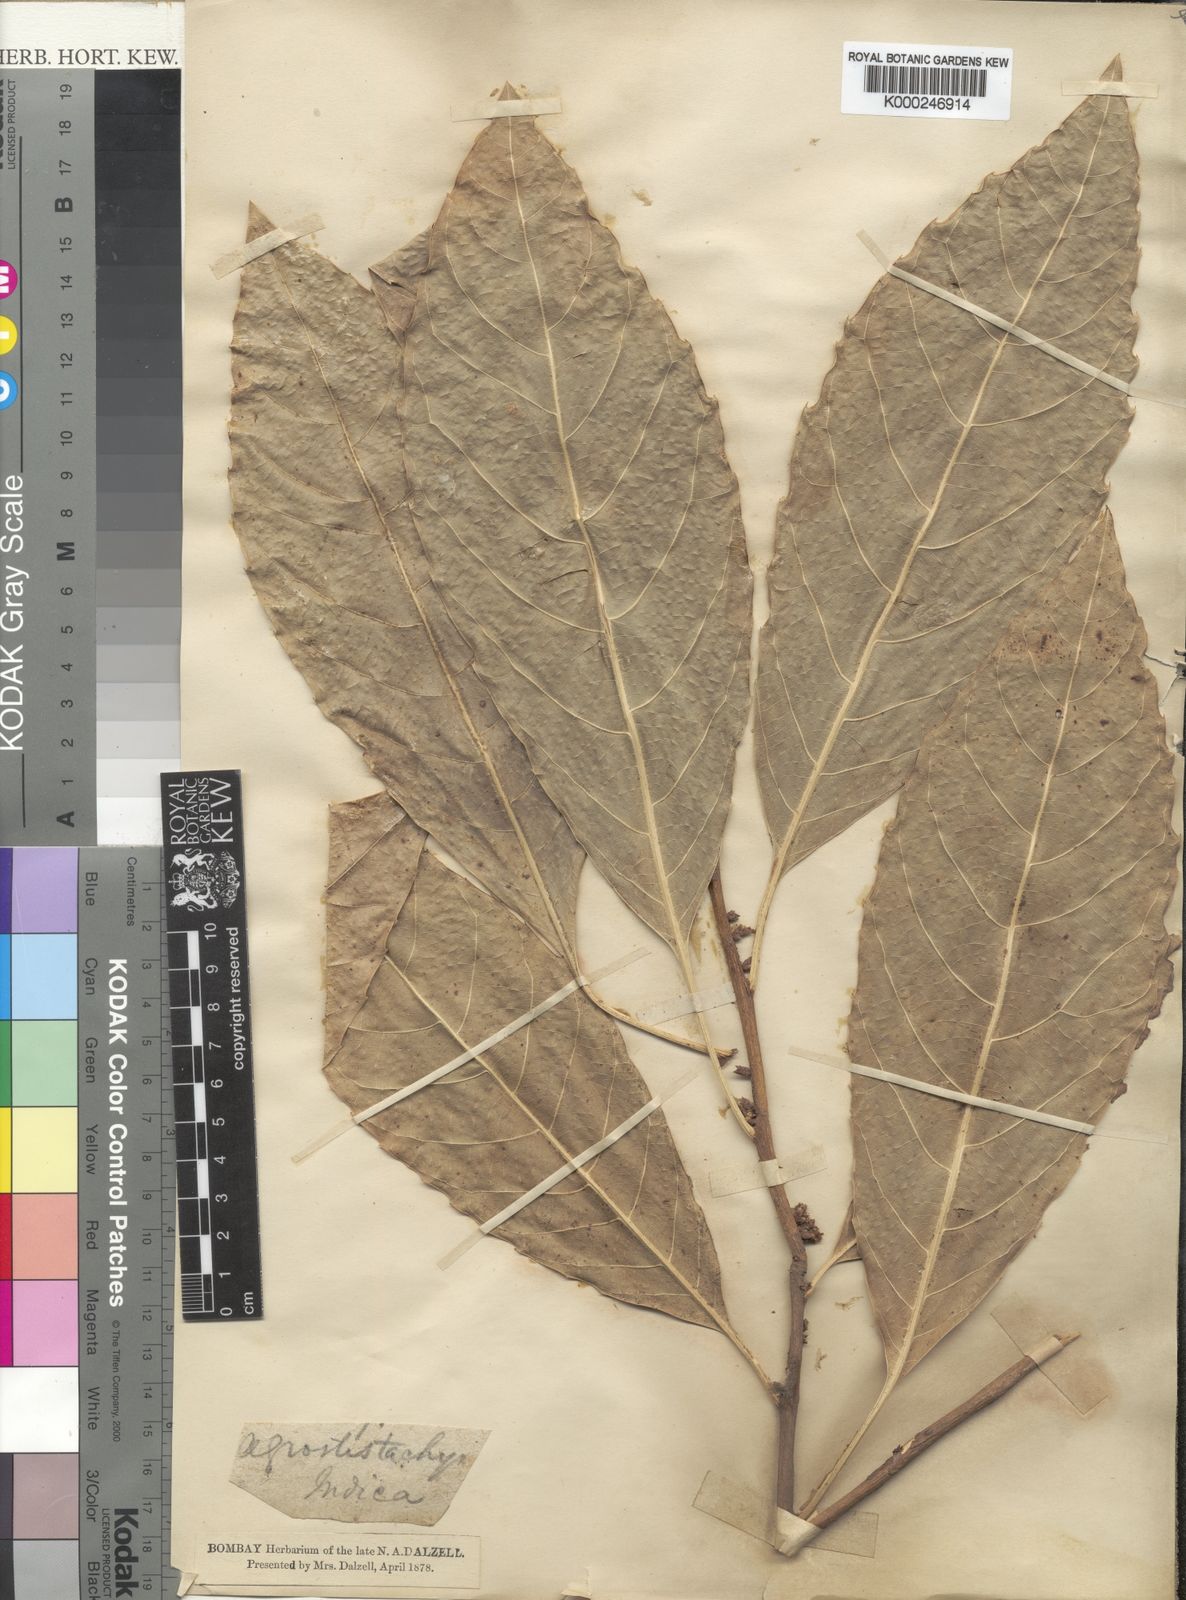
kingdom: Plantae
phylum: Tracheophyta
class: Magnoliopsida
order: Malpighiales
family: Euphorbiaceae
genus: Agrostistachys
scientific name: Agrostistachys indica
